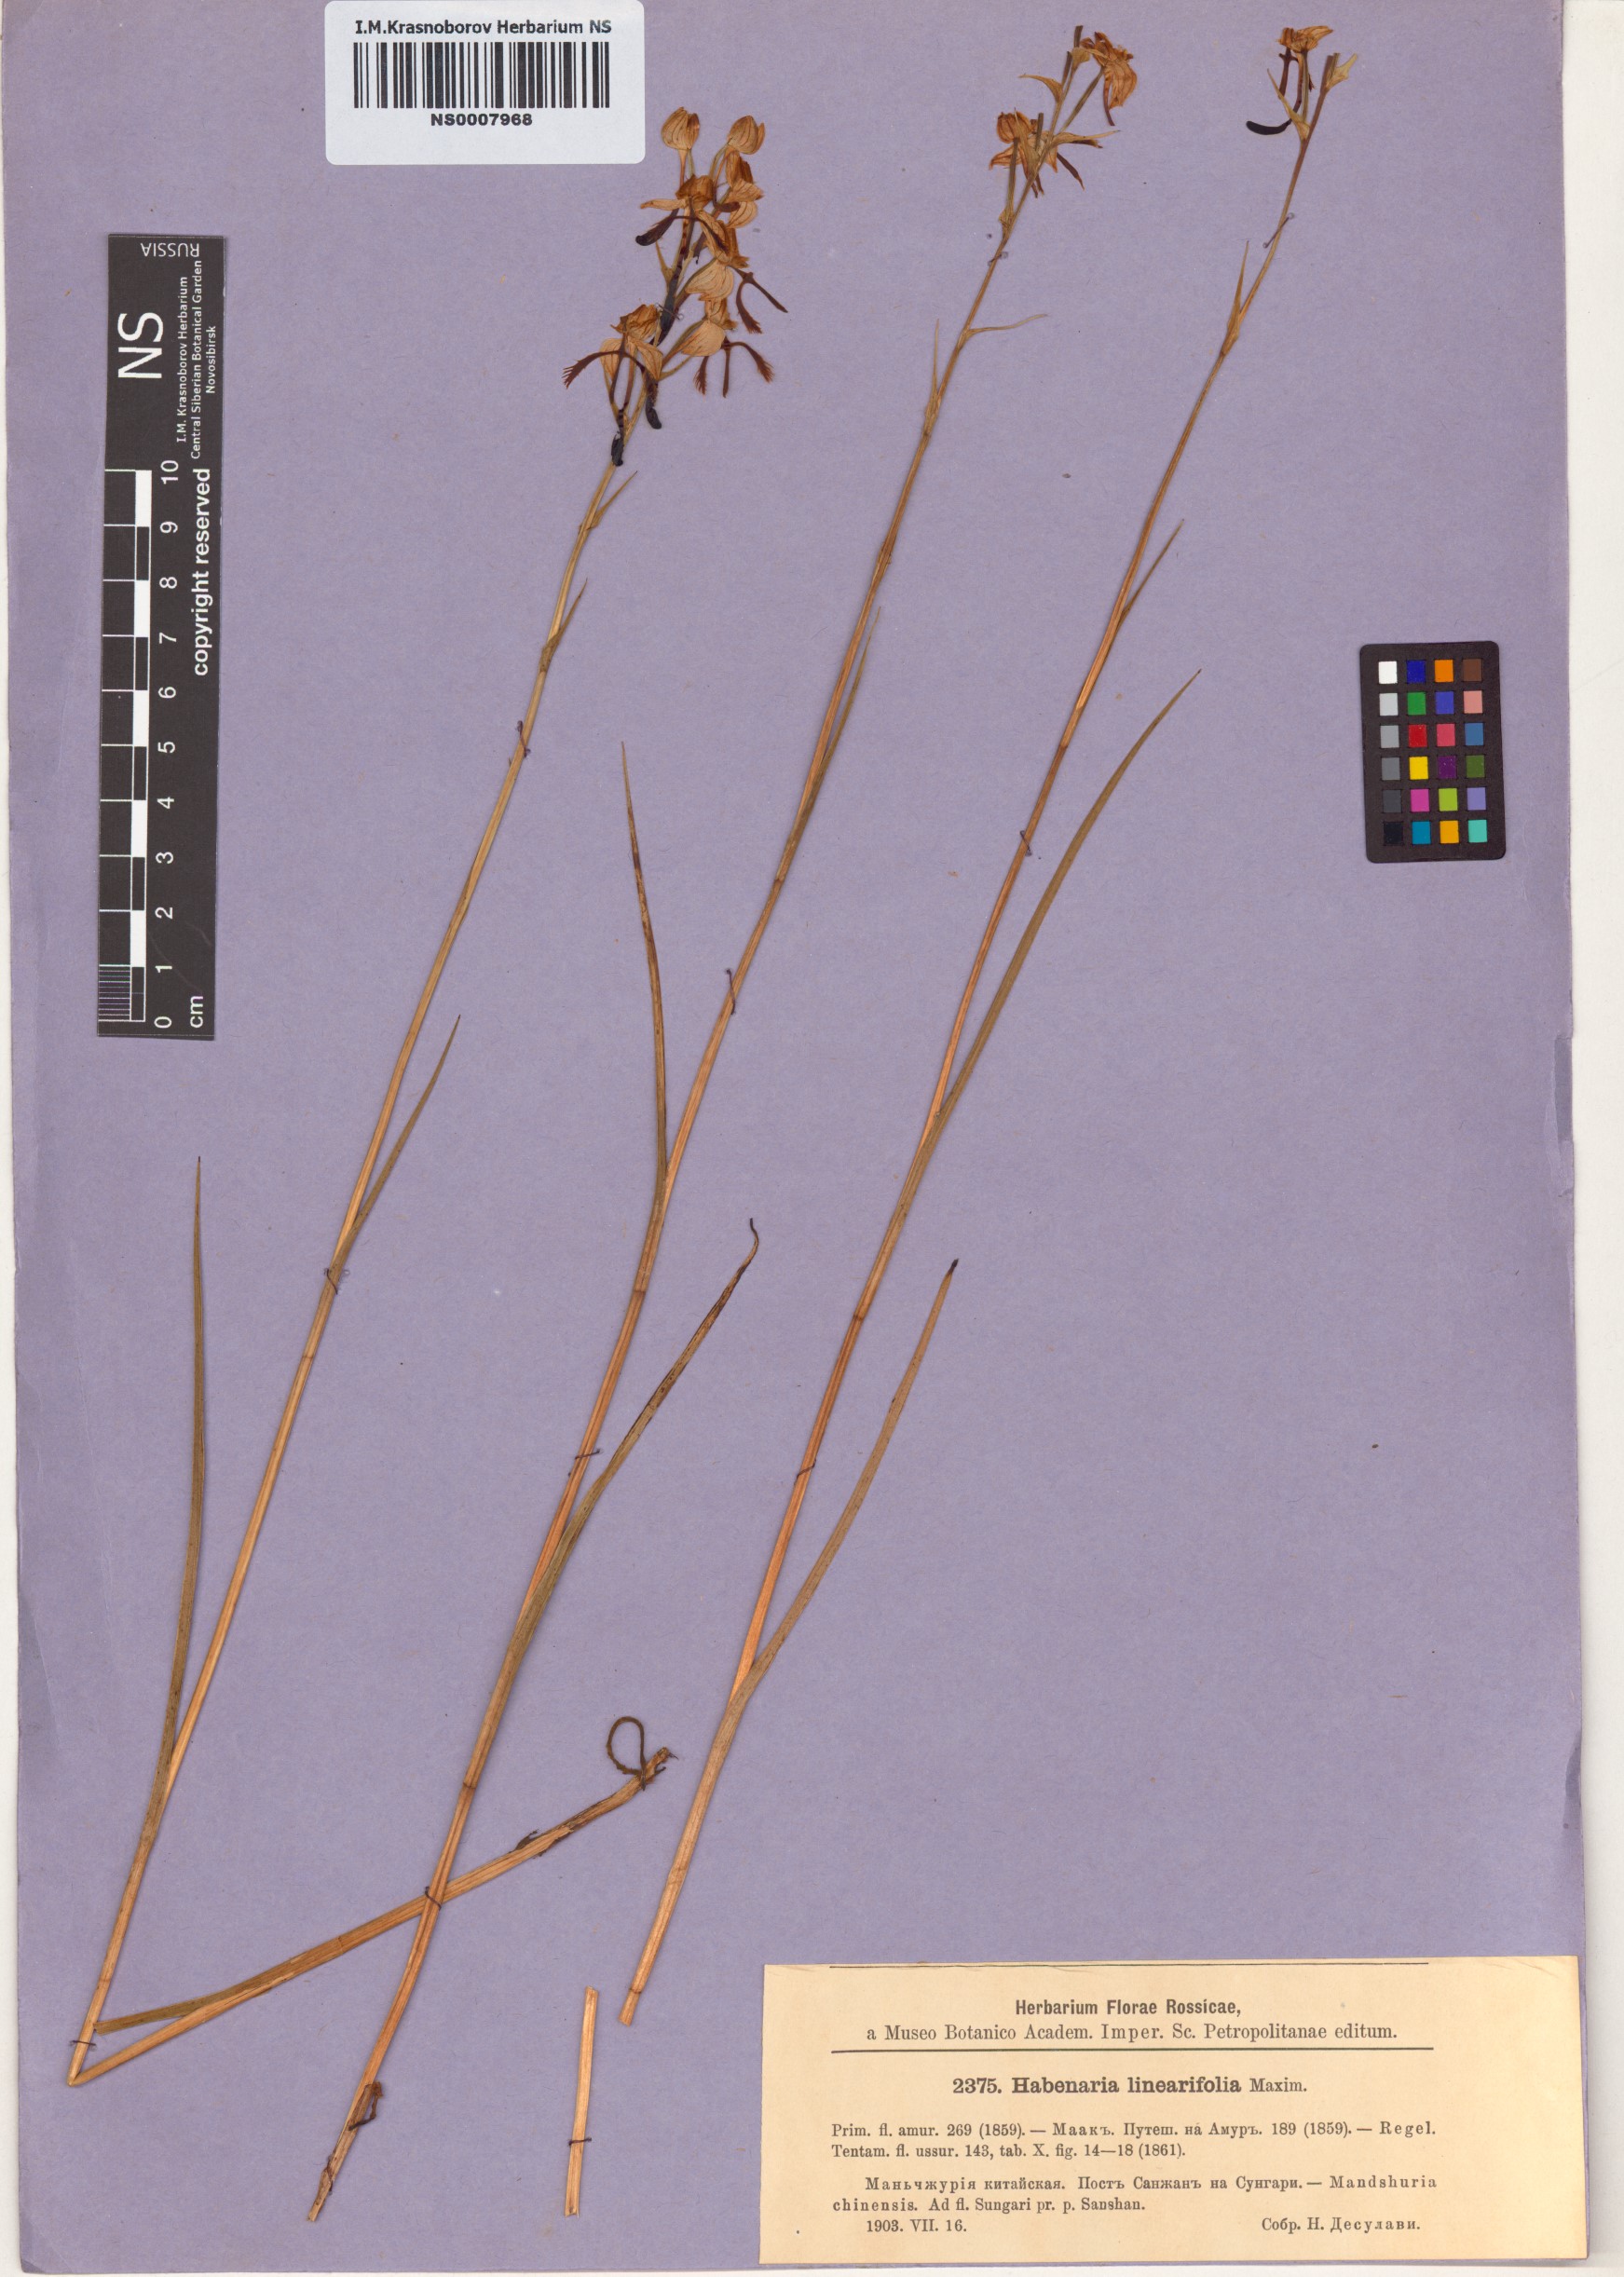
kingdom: Plantae
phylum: Tracheophyta
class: Liliopsida
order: Asparagales
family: Orchidaceae
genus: Habenaria
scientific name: Habenaria linearifolia
